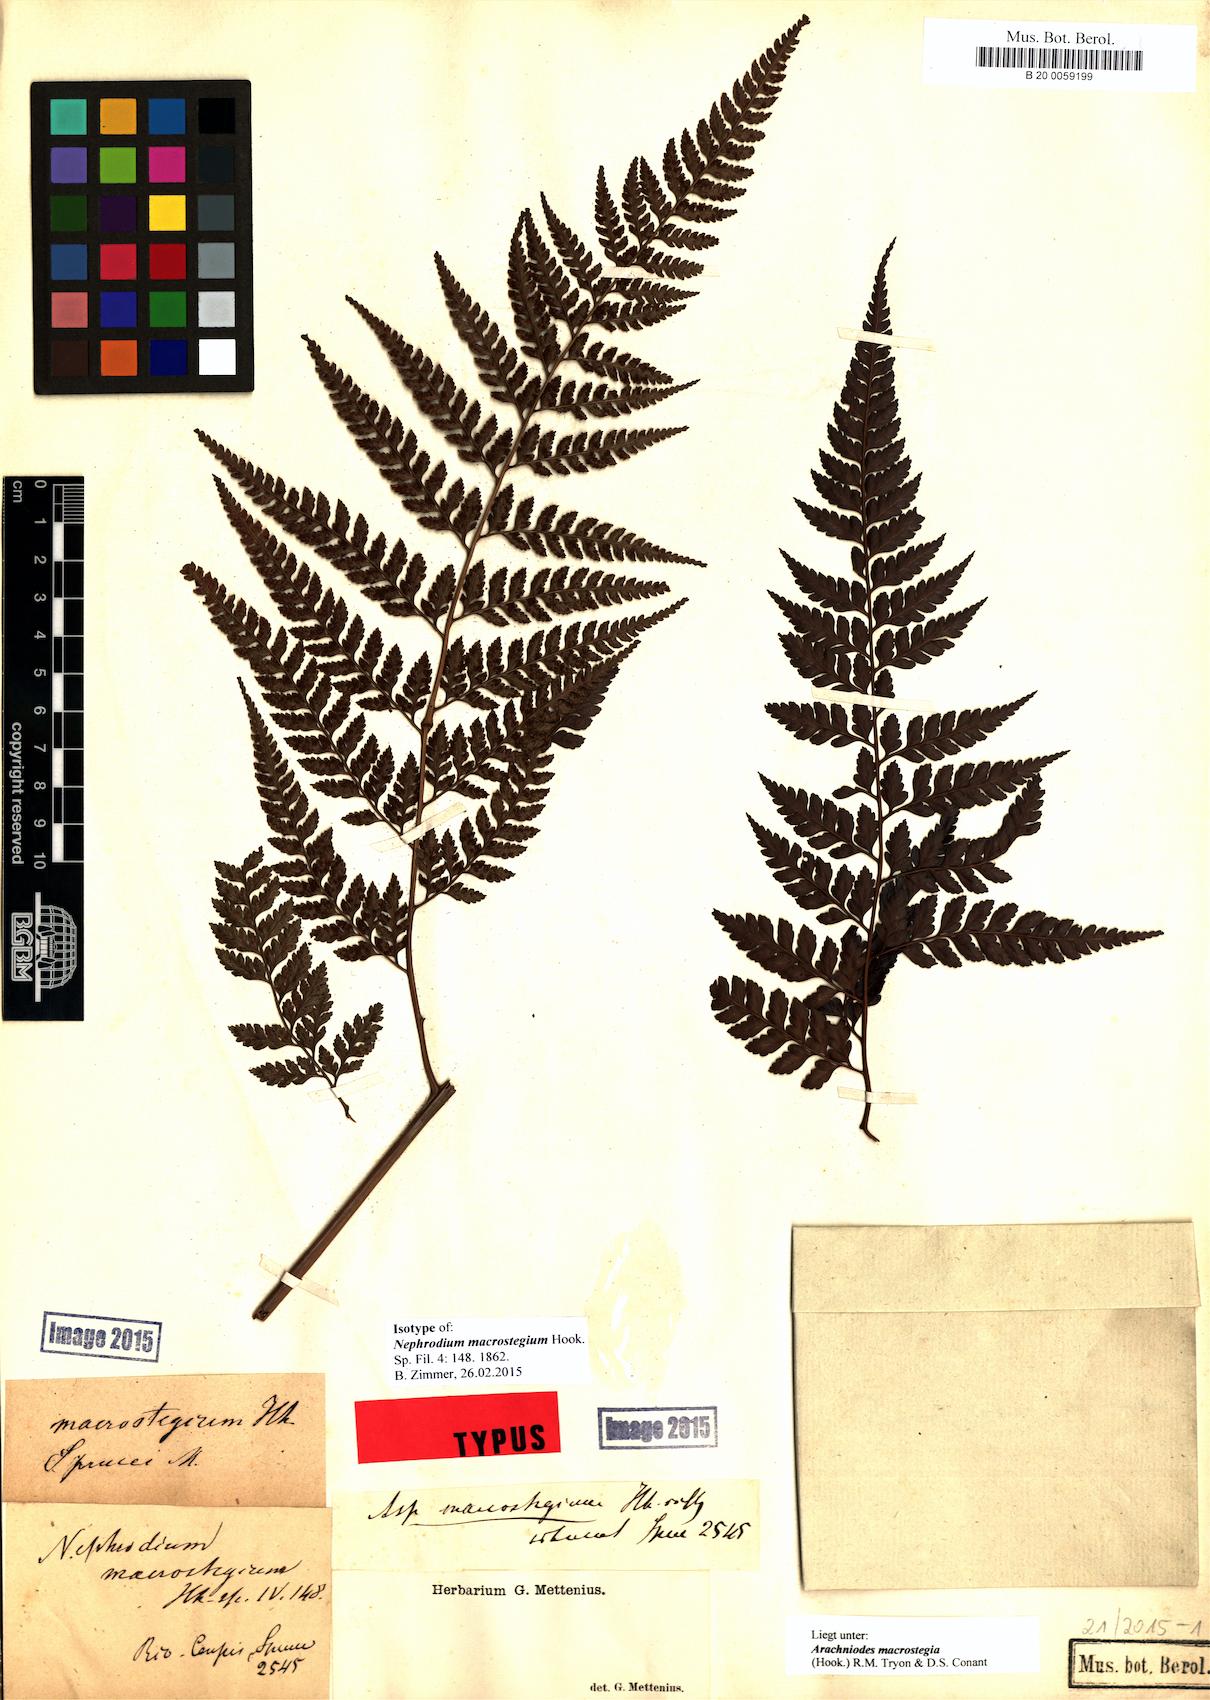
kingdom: Plantae
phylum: Tracheophyta
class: Polypodiopsida
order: Polypodiales
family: Dryopteridaceae
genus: Olfersia
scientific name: Olfersia macrostegia
